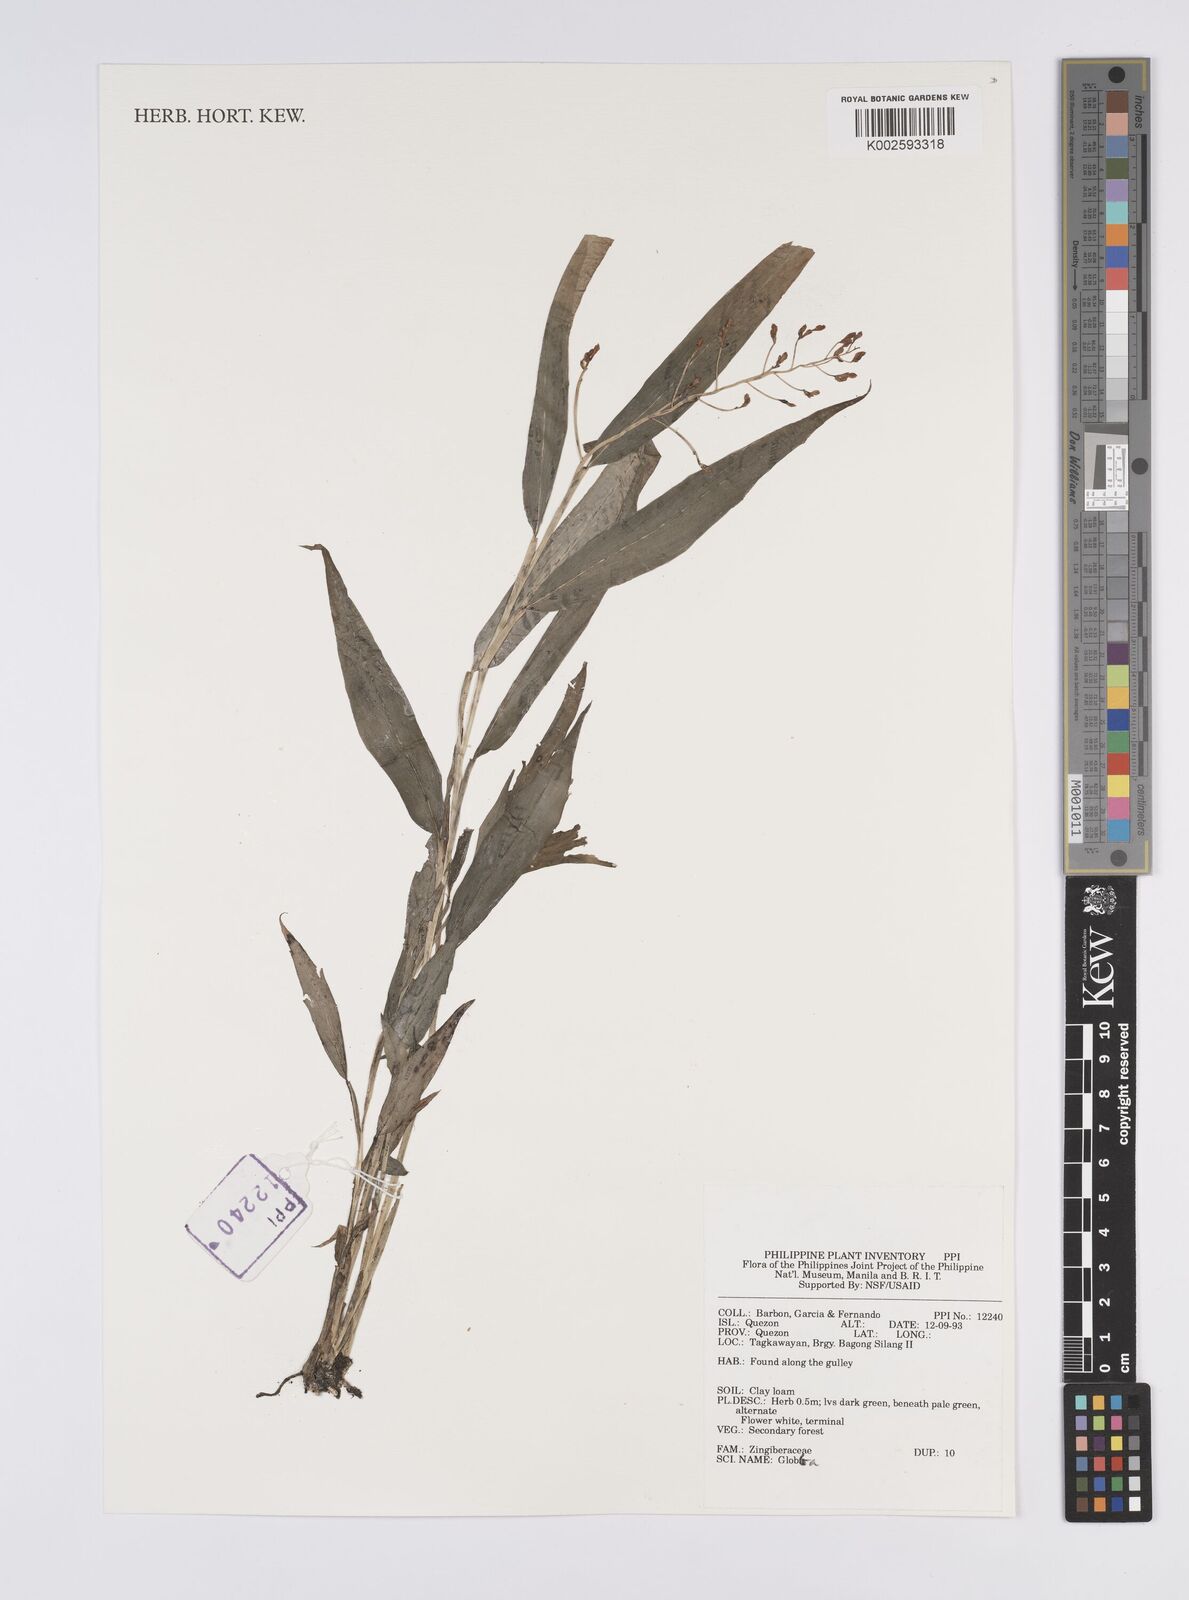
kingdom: Plantae
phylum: Tracheophyta
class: Liliopsida
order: Zingiberales
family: Zingiberaceae
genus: Globba
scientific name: Globba
